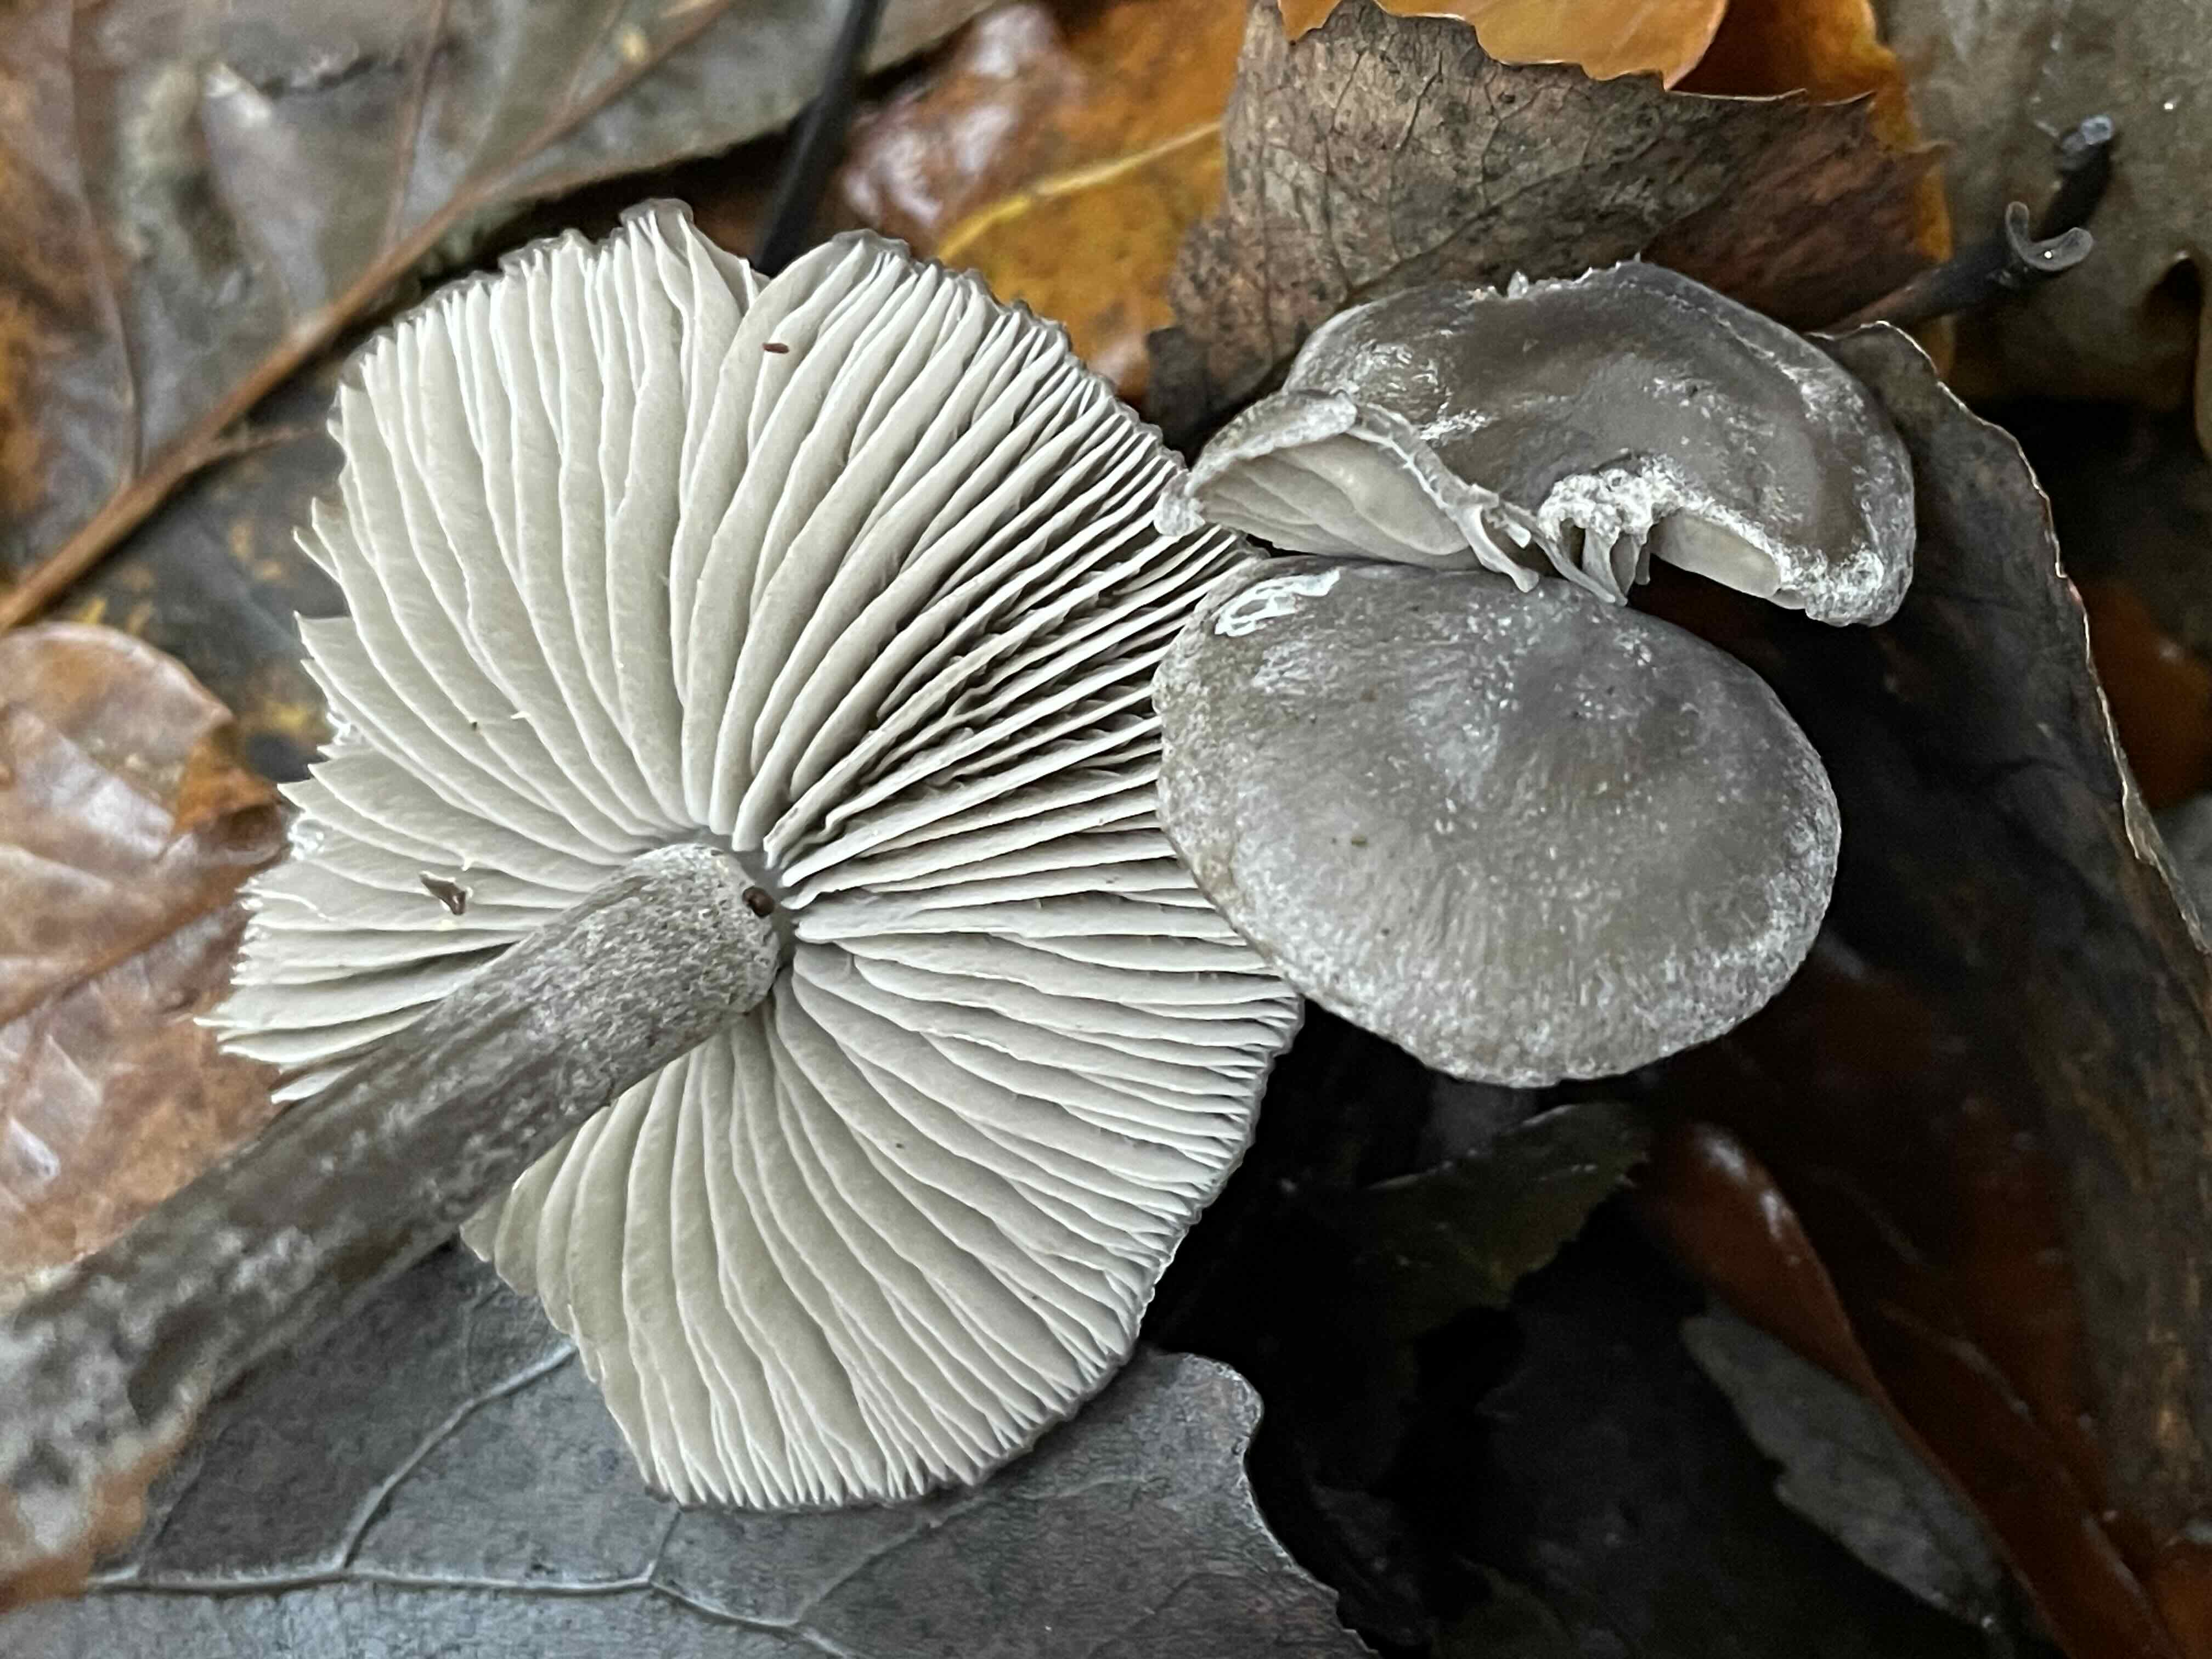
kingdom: Fungi
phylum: Basidiomycota
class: Agaricomycetes
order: Agaricales
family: Lyophyllaceae
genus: Tephrocybe
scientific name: Tephrocybe rancida
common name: mel-gråblad
